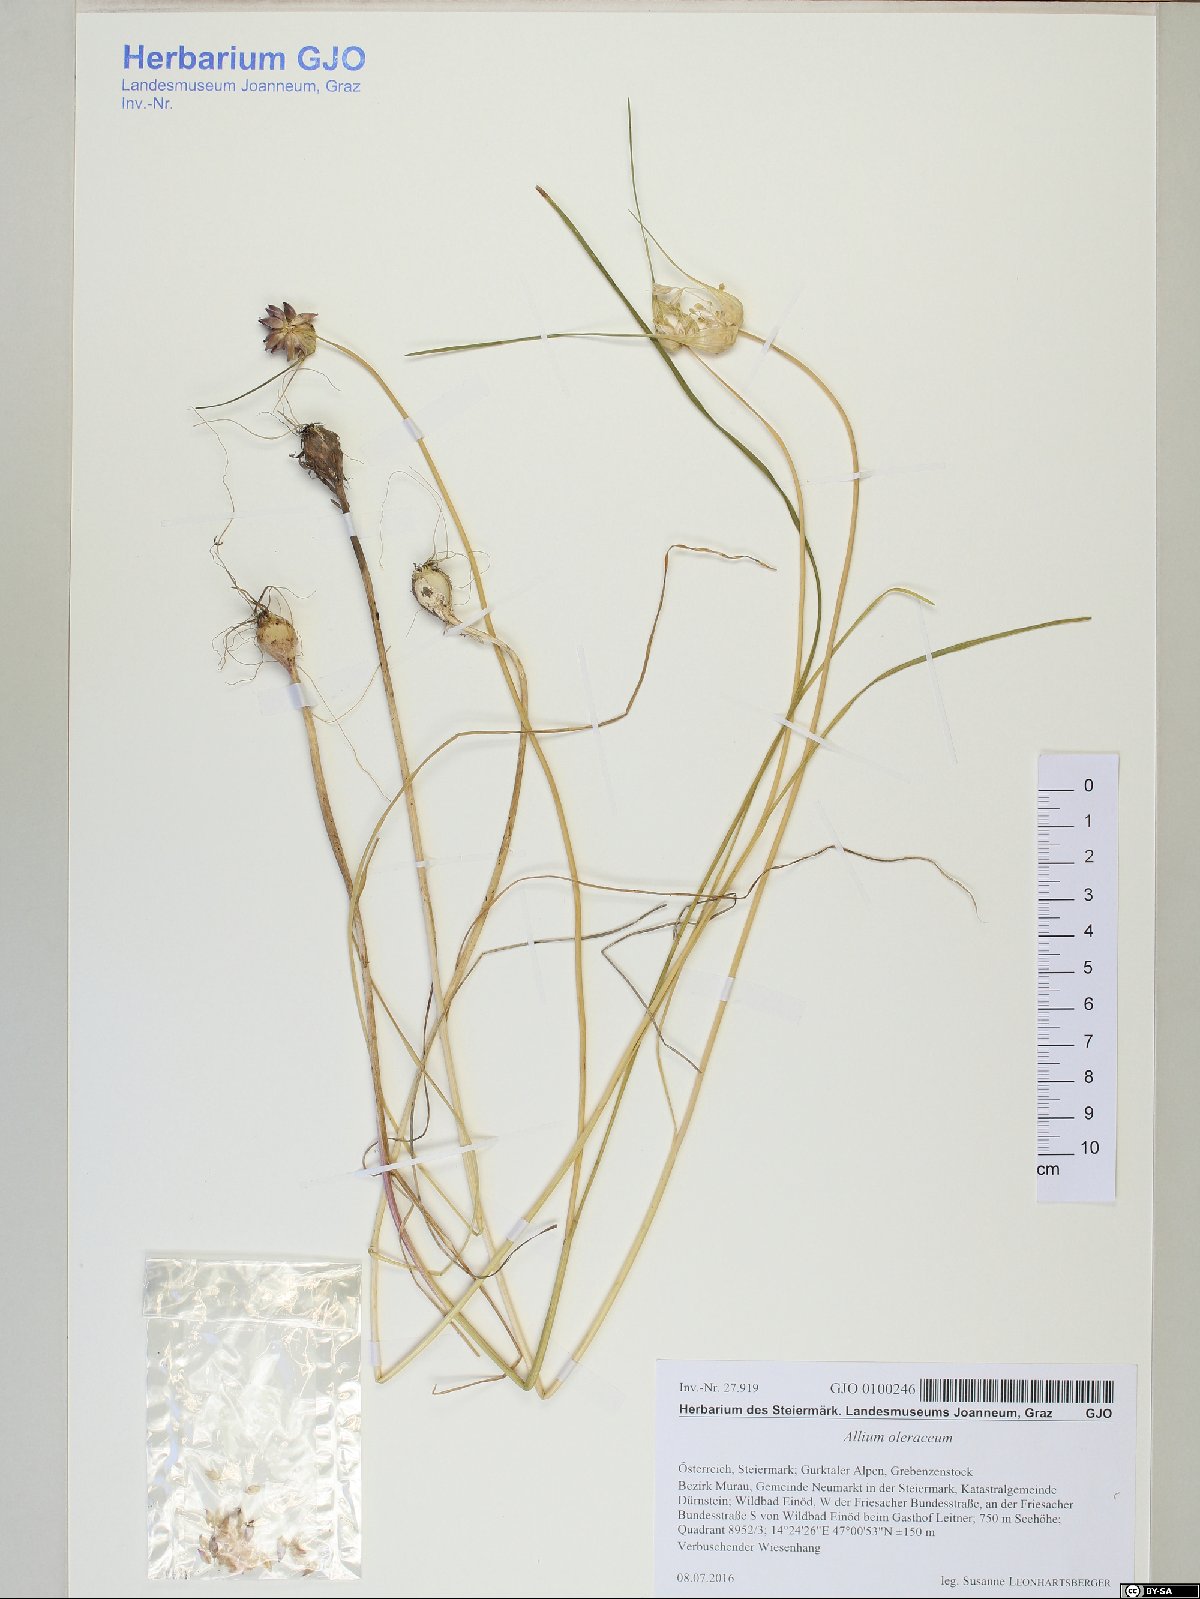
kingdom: Plantae
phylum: Tracheophyta
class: Liliopsida
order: Asparagales
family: Amaryllidaceae
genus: Allium
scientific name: Allium oleraceum
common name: Field garlic
